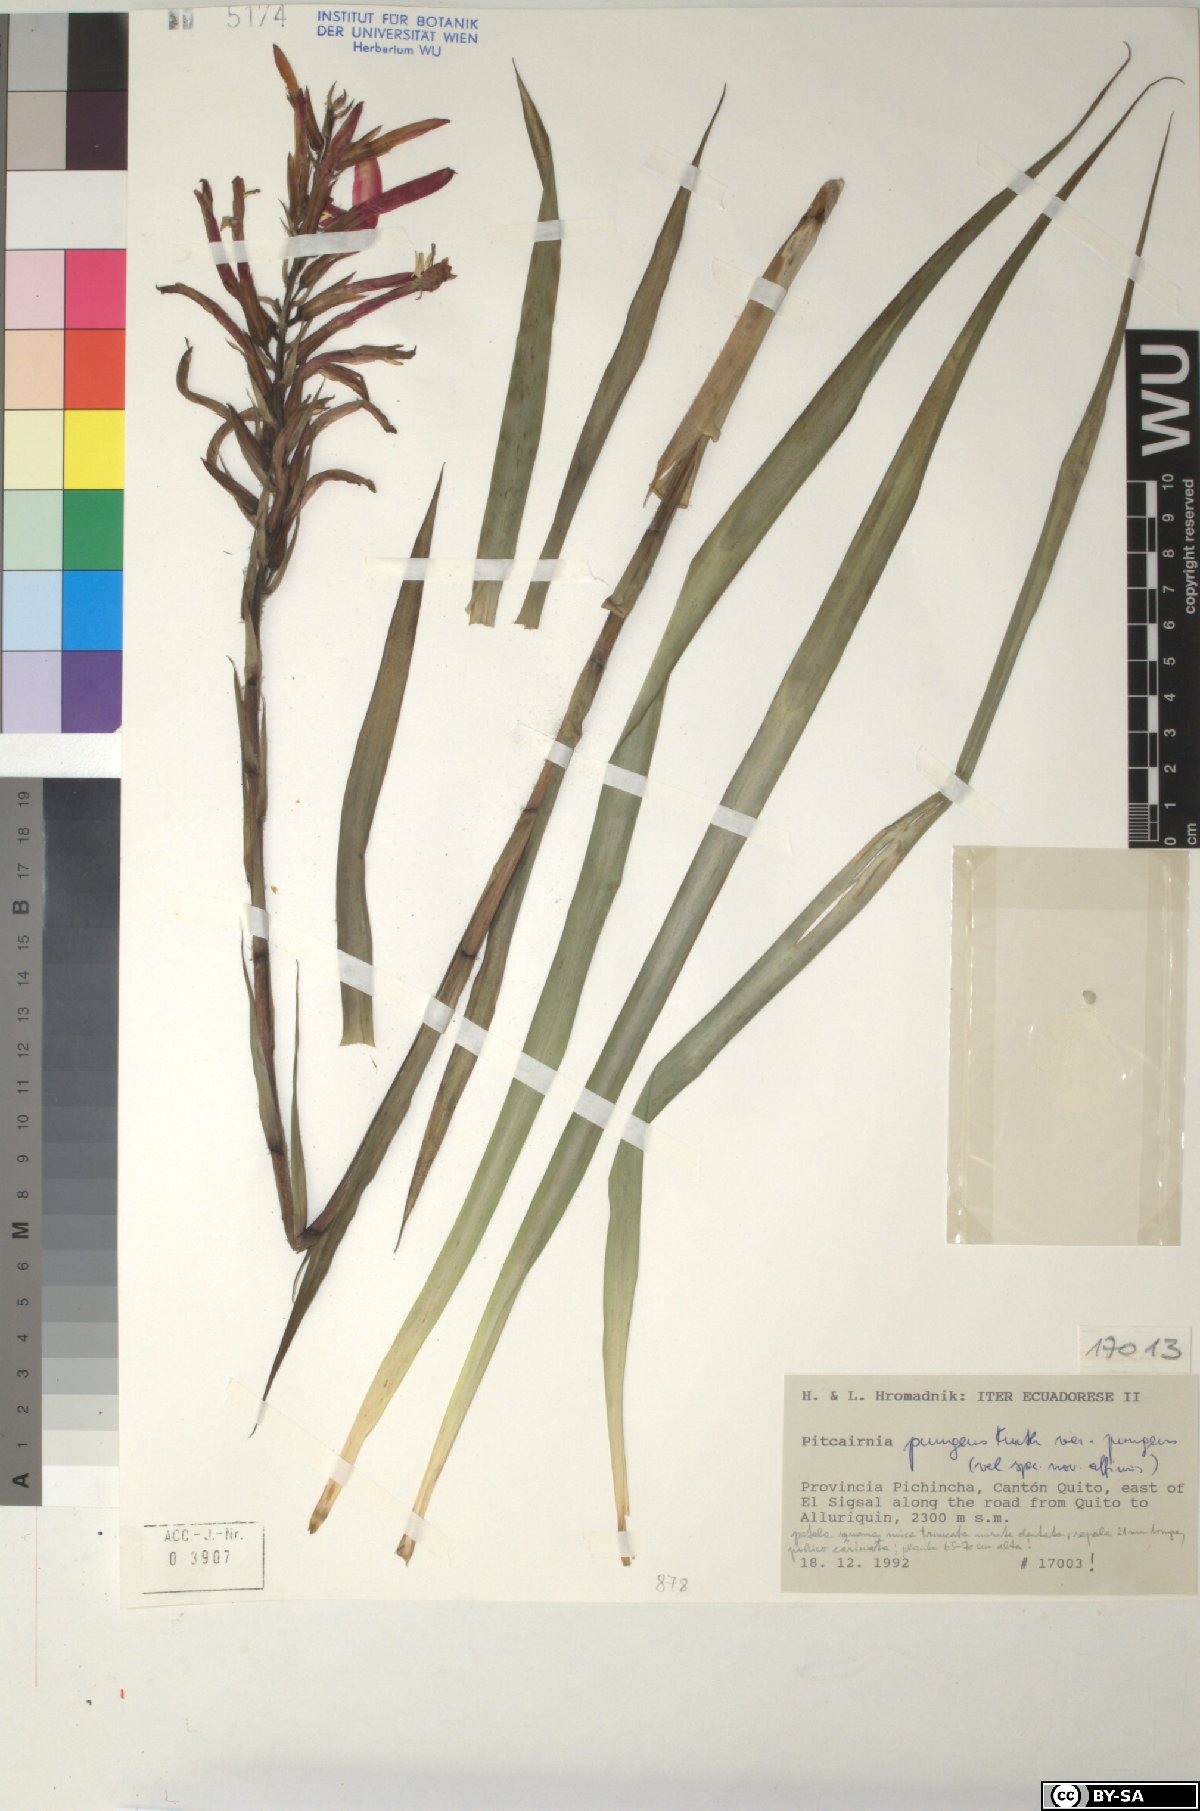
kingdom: Plantae
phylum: Tracheophyta
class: Liliopsida
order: Poales
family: Bromeliaceae
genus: Pitcairnia
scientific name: Pitcairnia pungens
